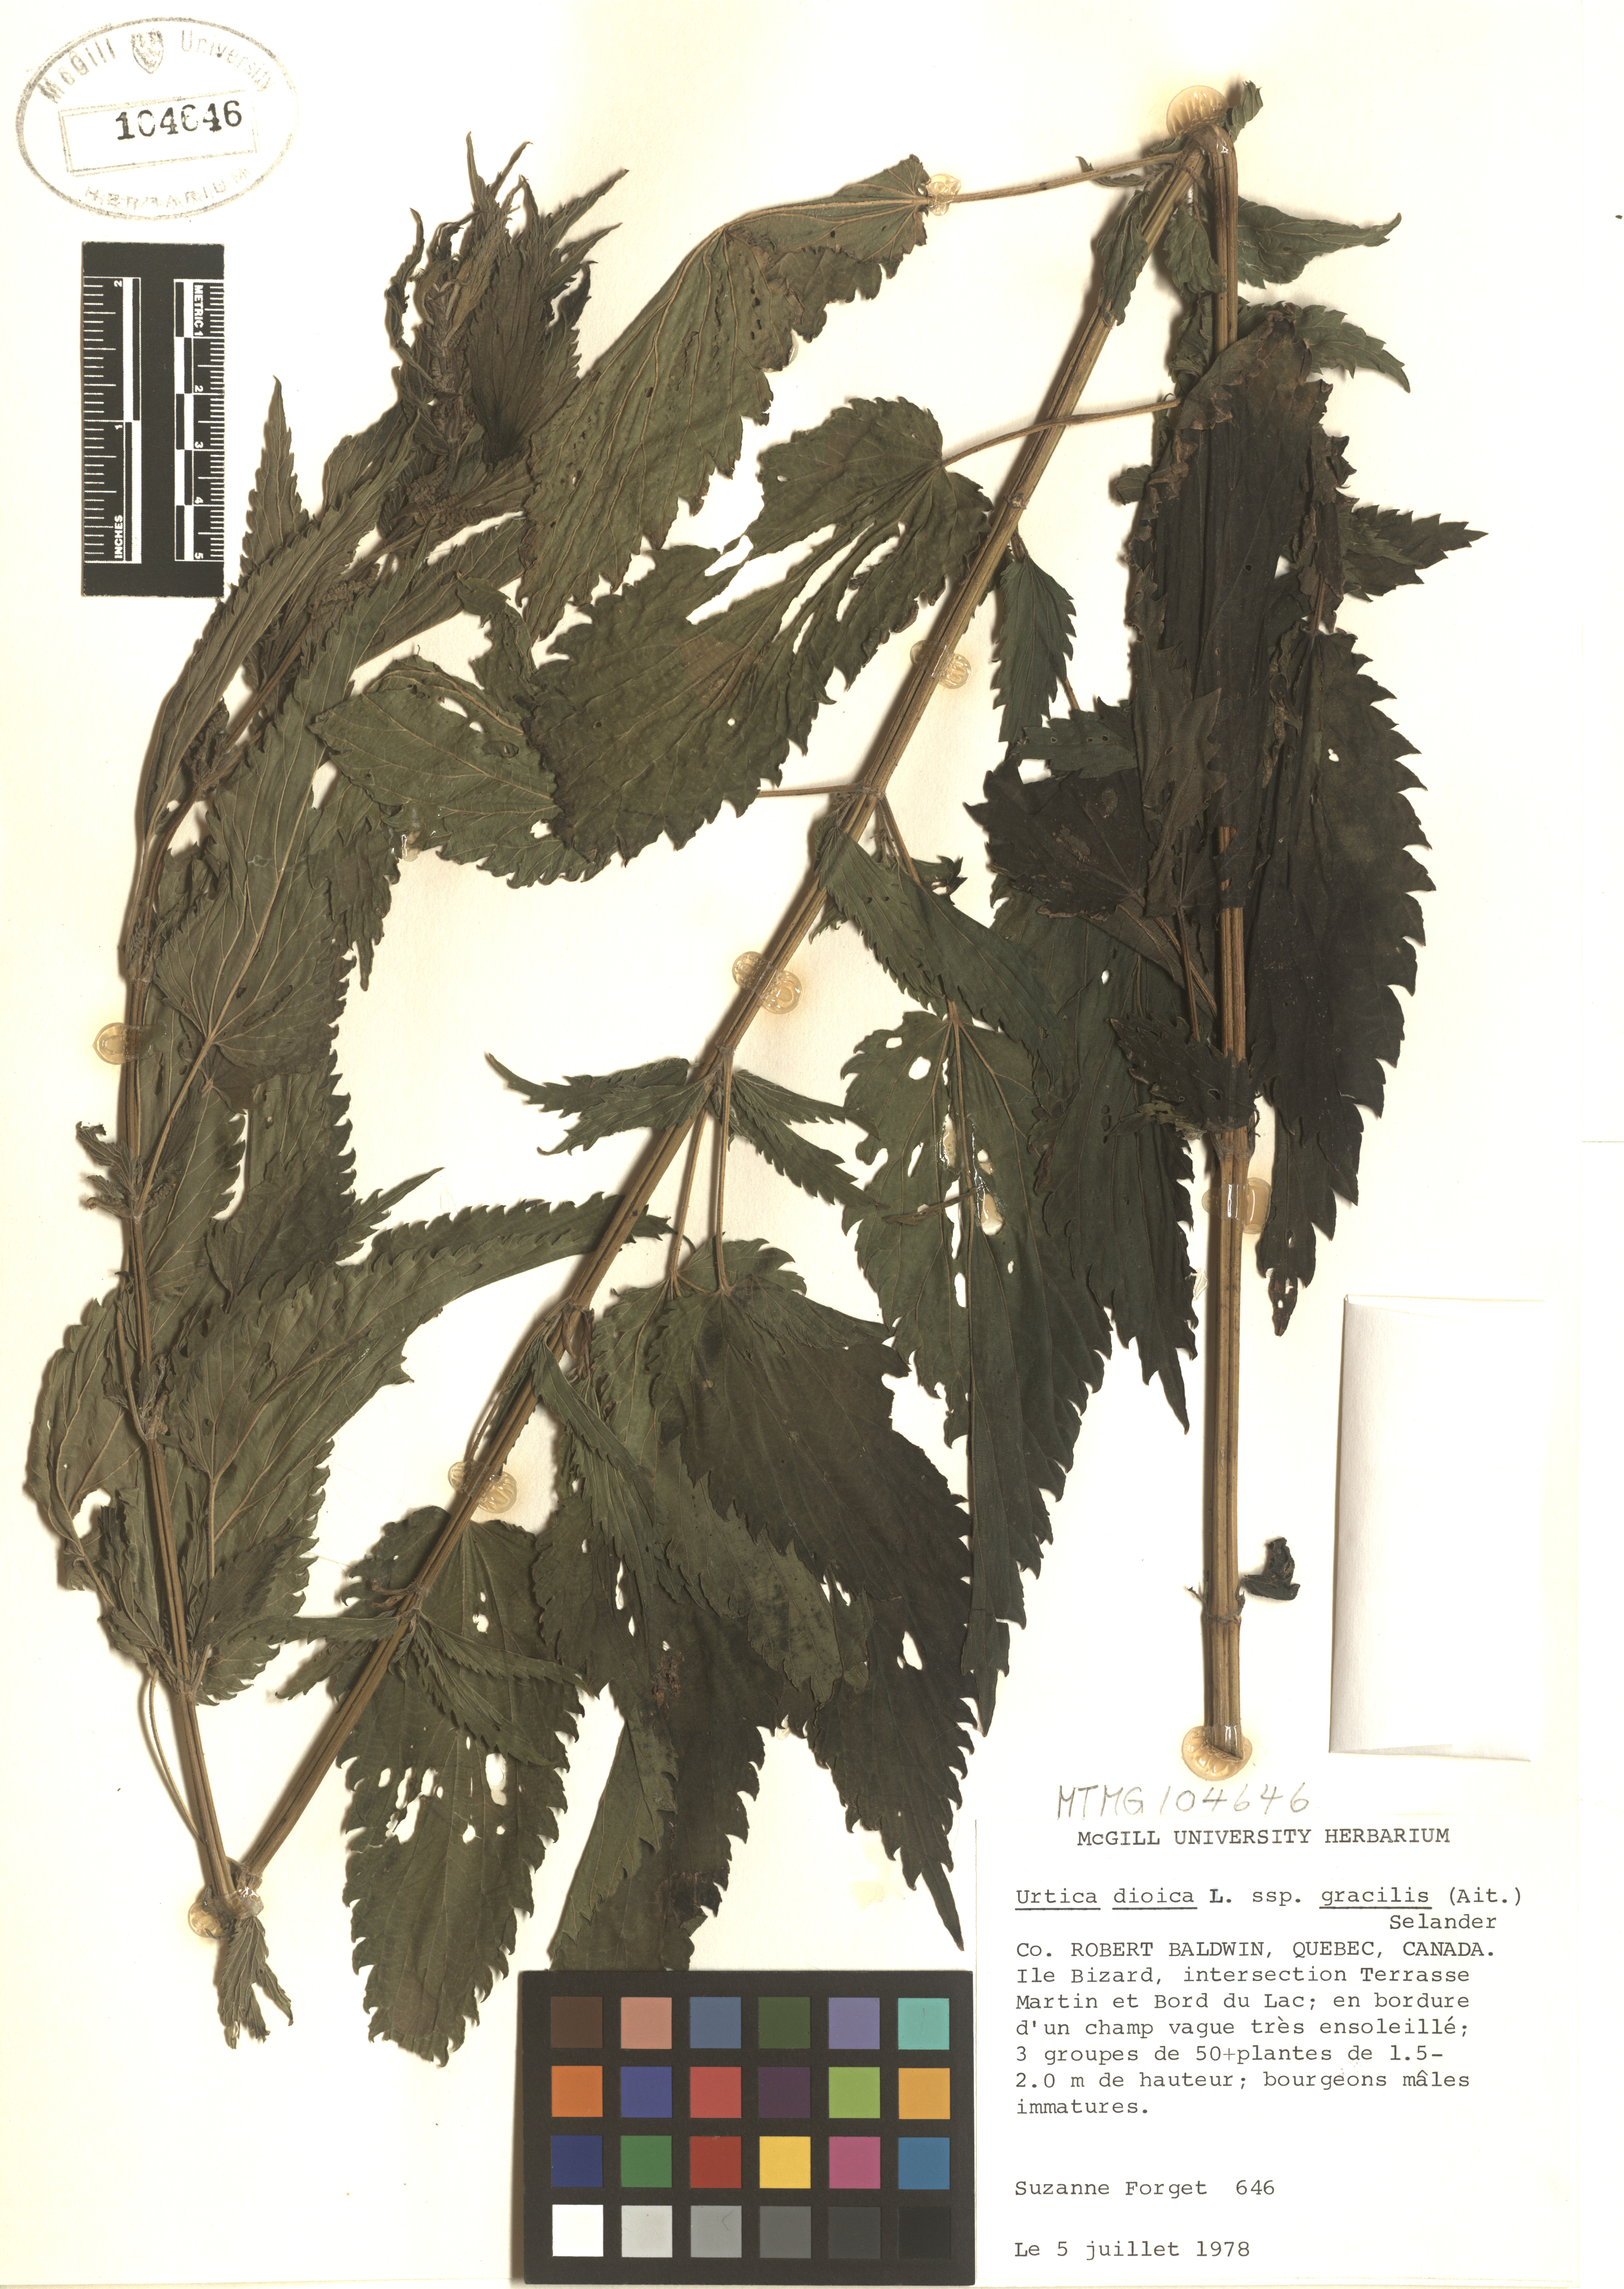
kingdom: Plantae
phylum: Tracheophyta
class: Magnoliopsida
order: Rosales
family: Urticaceae
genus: Urtica
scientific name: Urtica gracilis
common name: Slender stinging nettle
